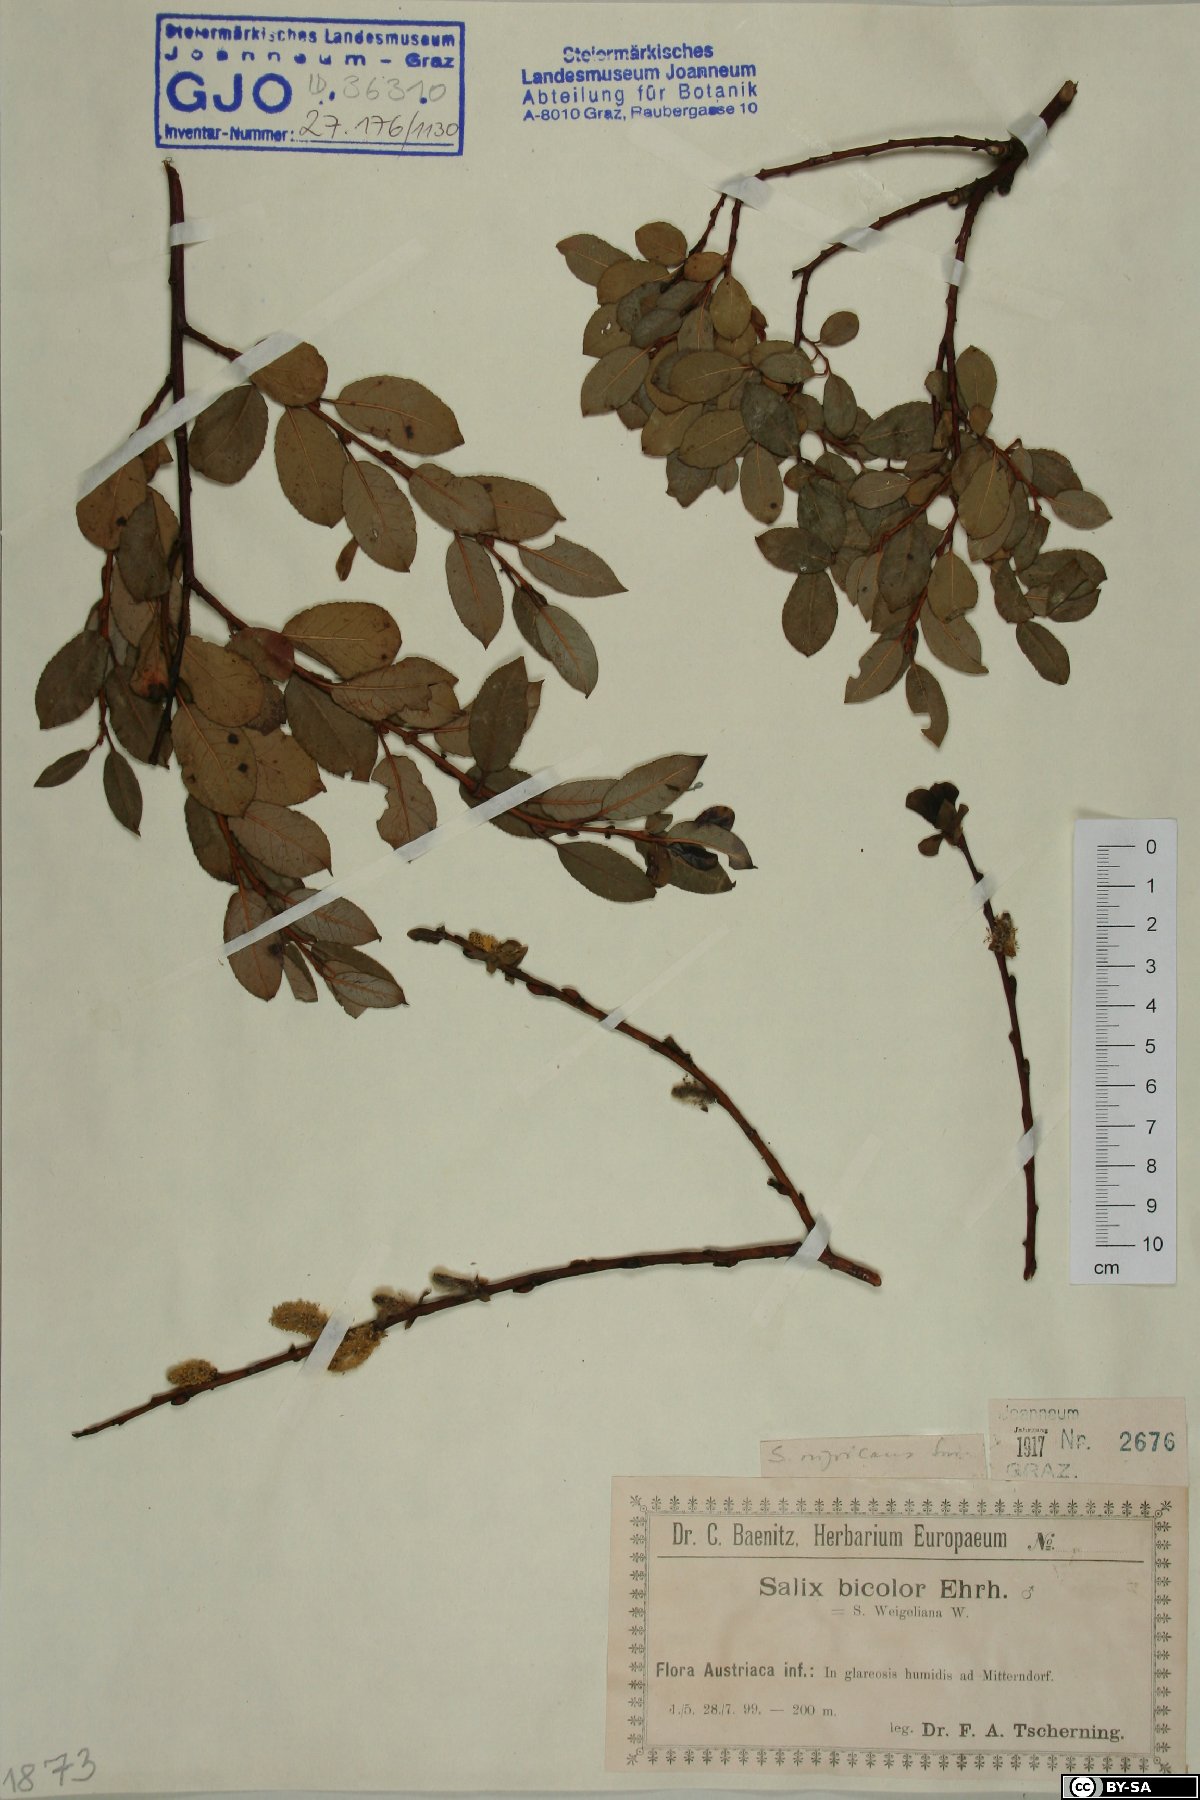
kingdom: Plantae
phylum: Tracheophyta
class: Magnoliopsida
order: Malpighiales
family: Salicaceae
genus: Salix
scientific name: Salix myrsinifolia
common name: Dark-leaved willow
